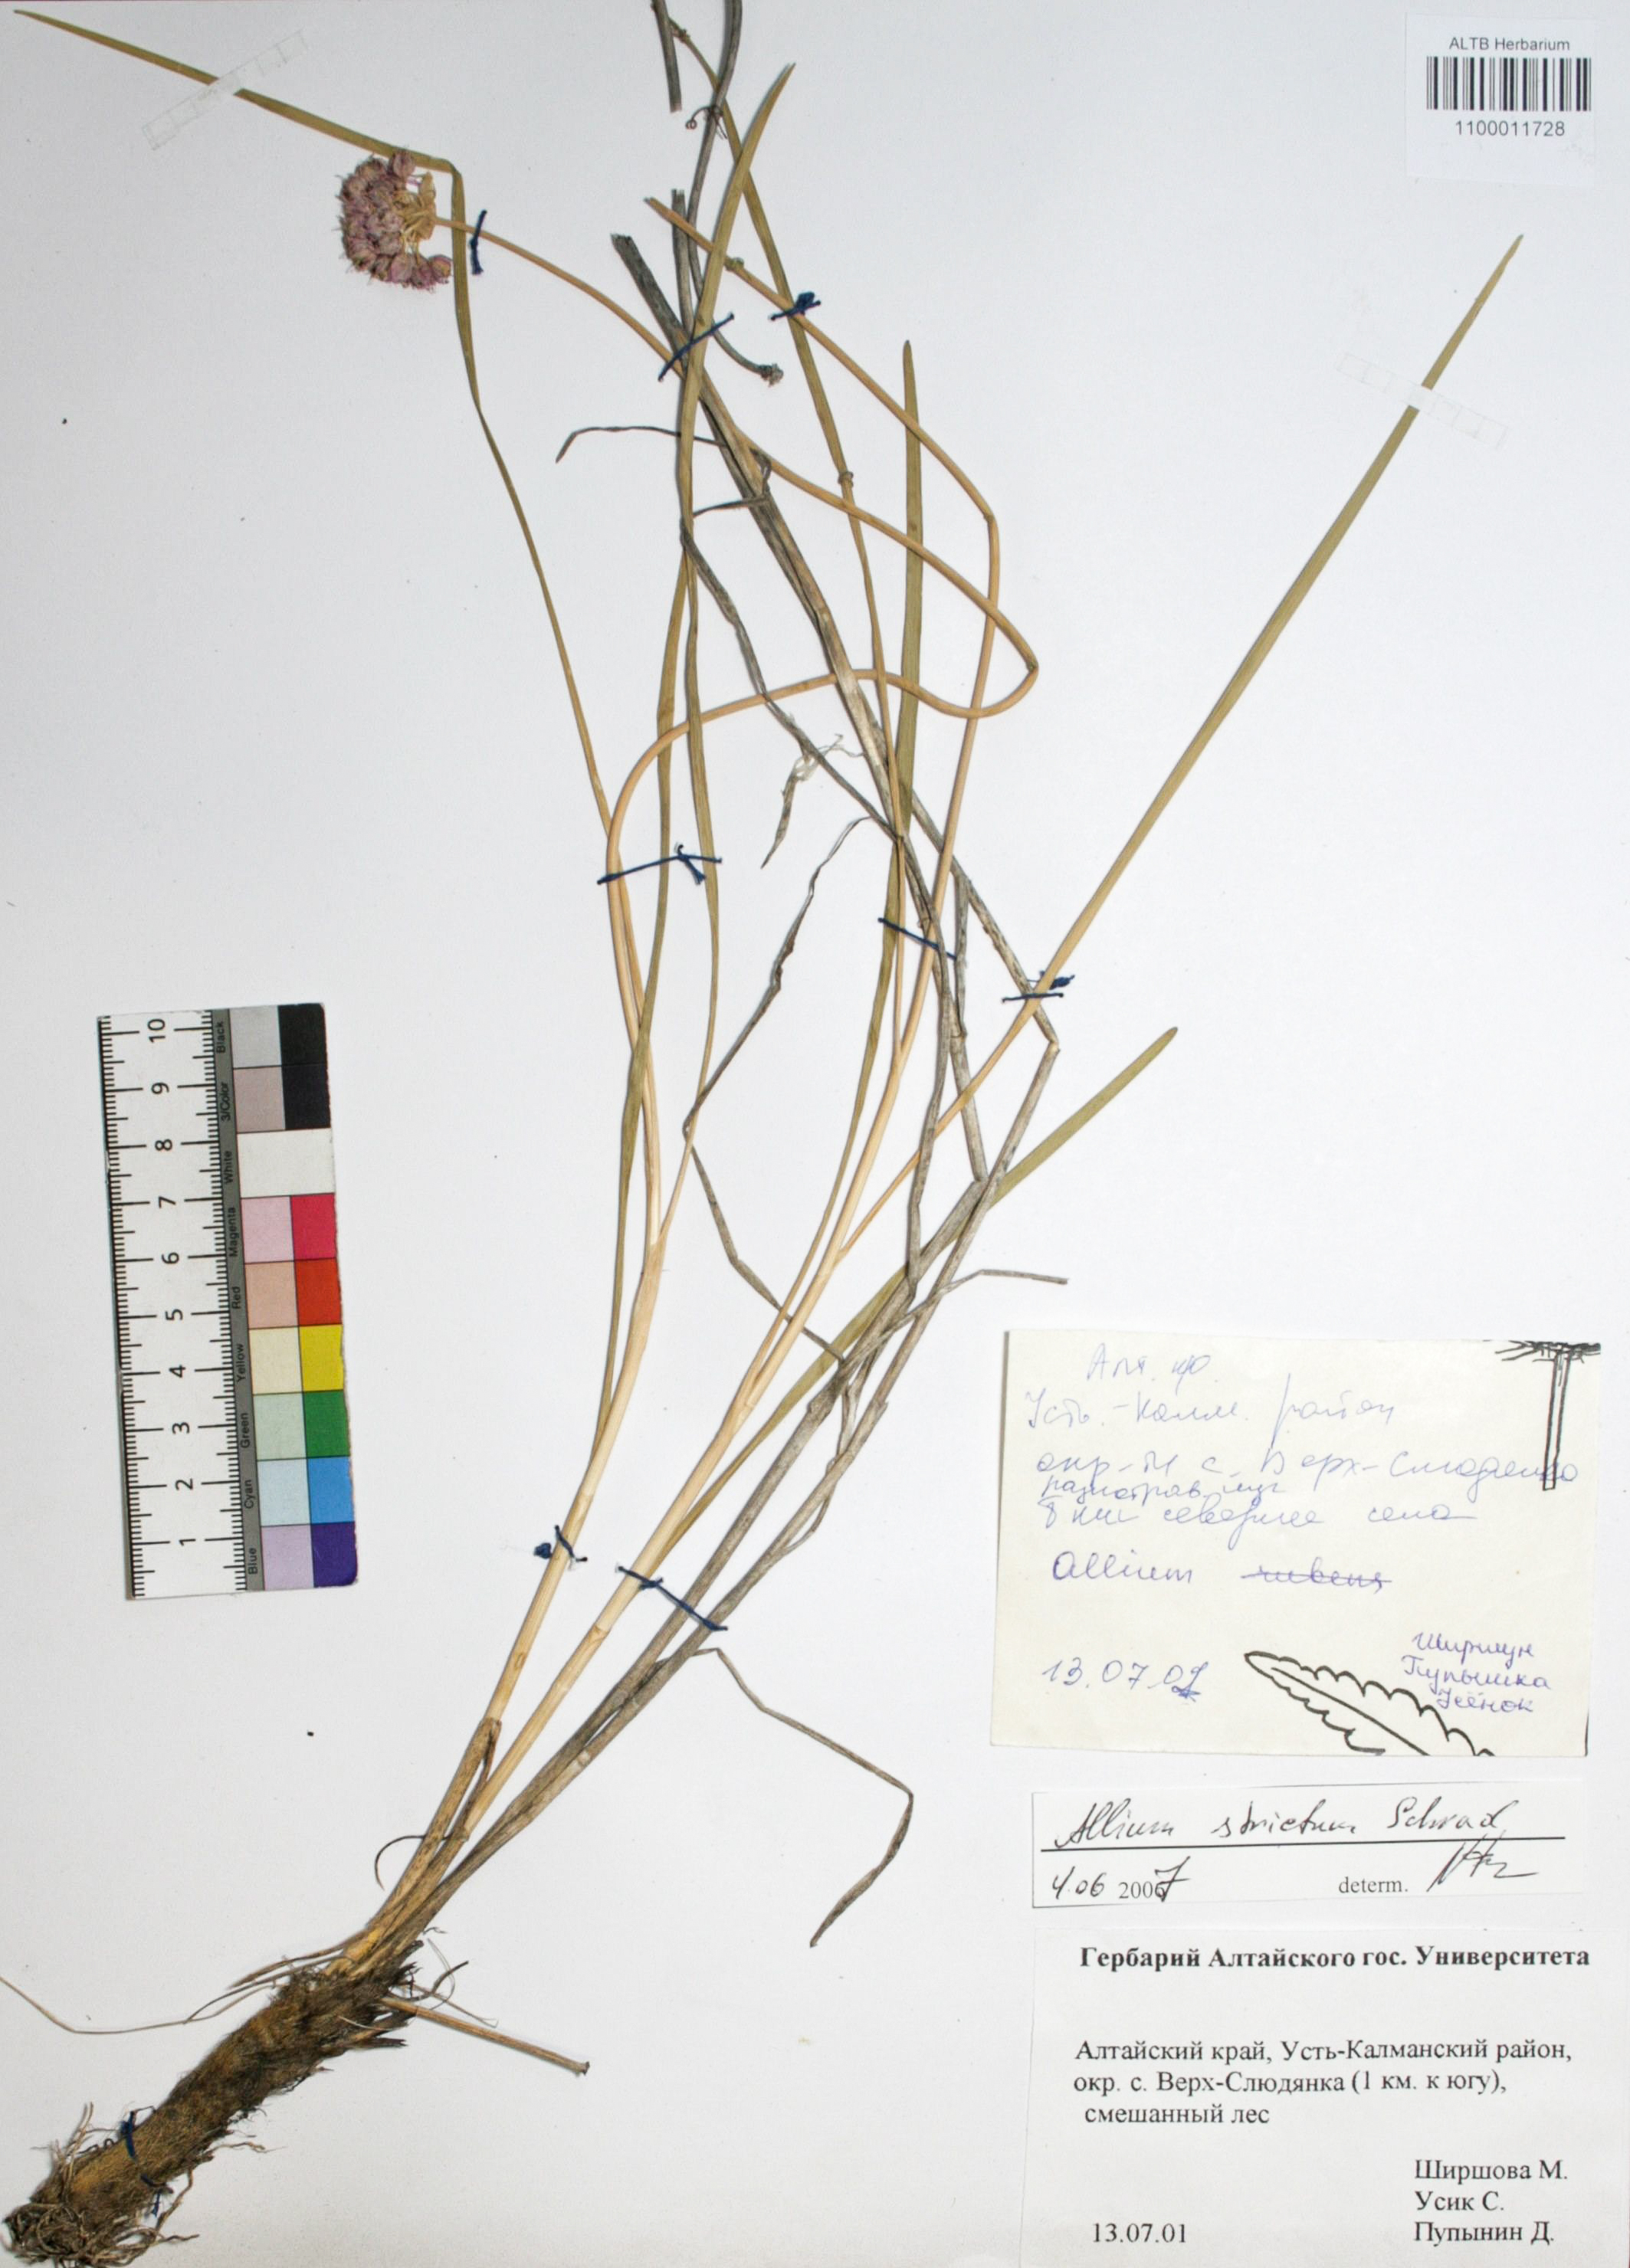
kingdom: Plantae
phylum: Tracheophyta
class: Liliopsida
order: Asparagales
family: Amaryllidaceae
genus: Allium
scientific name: Allium strictum
